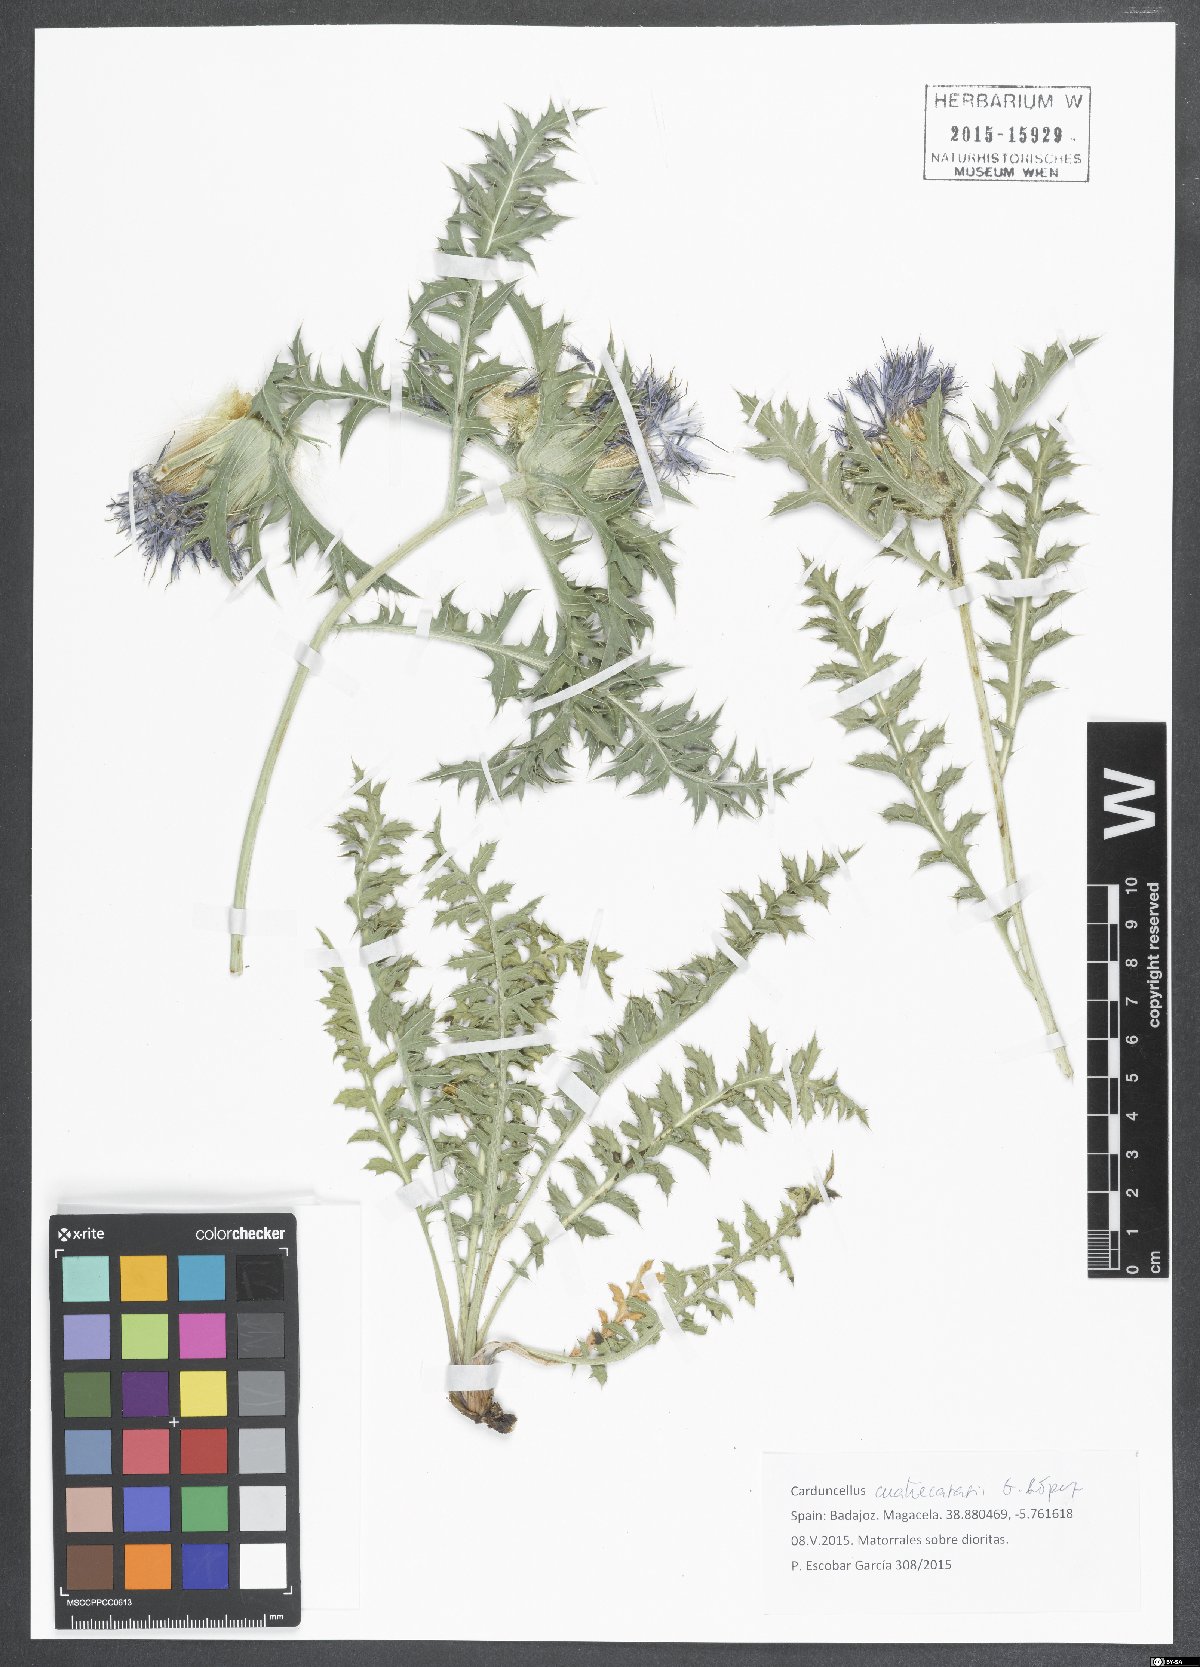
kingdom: Plantae
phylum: Tracheophyta
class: Magnoliopsida
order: Asterales
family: Asteraceae
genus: Carduncellus
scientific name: Carduncellus hispanicus
